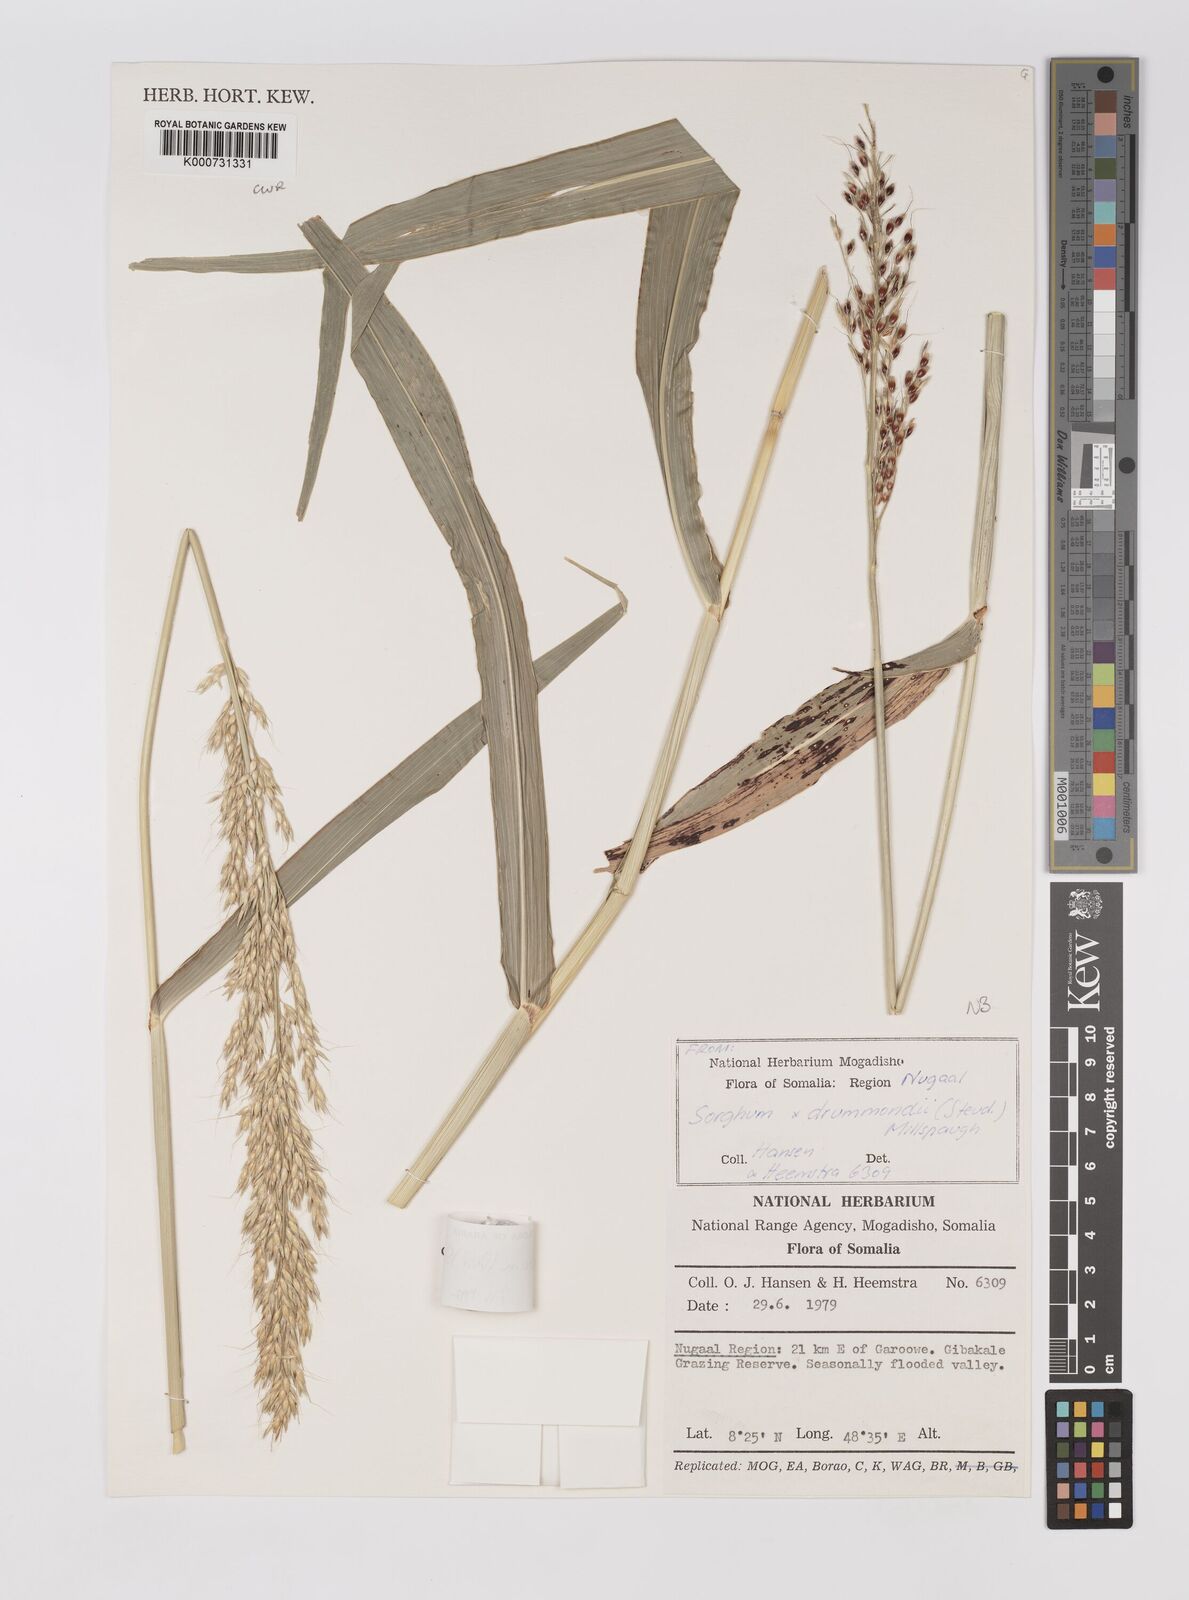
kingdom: Plantae
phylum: Tracheophyta
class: Liliopsida
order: Poales
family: Poaceae
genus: Sorghum
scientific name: Sorghum arundinaceum
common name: Sorghum
